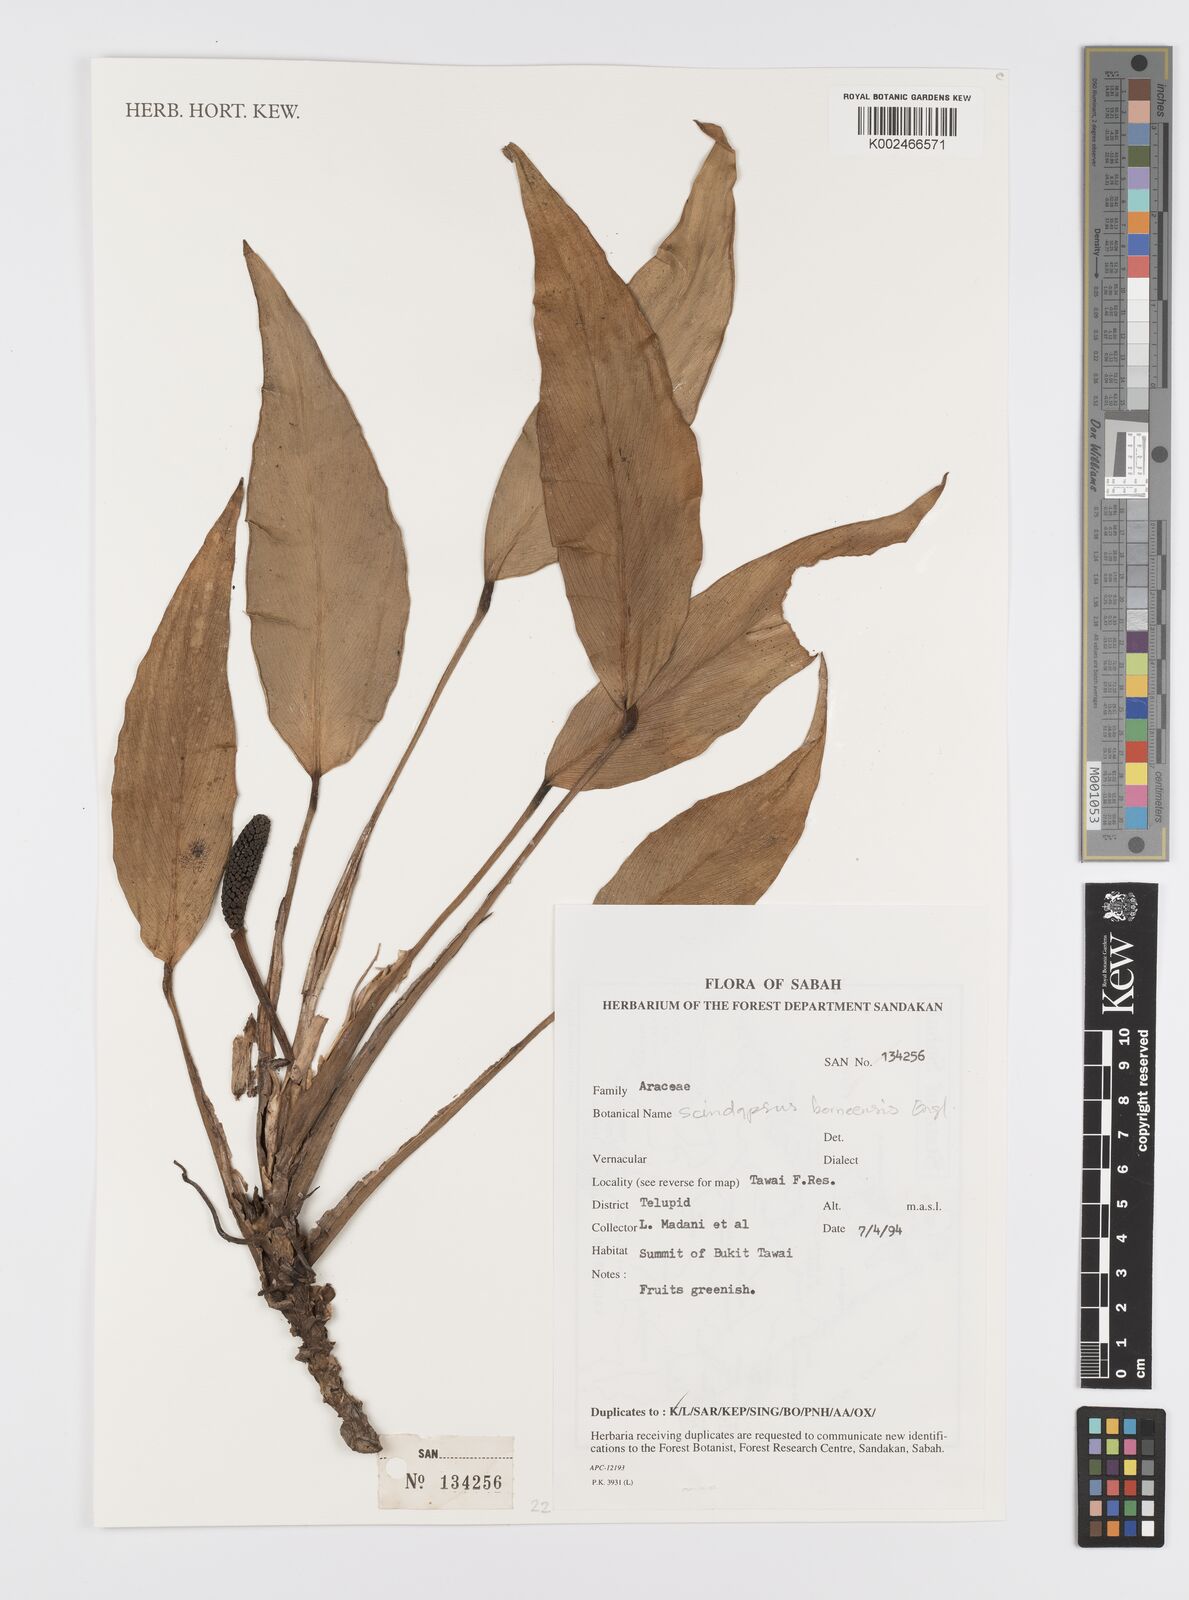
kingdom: Plantae
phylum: Tracheophyta
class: Liliopsida
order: Alismatales
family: Araceae
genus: Scindapsus
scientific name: Scindapsus coriaceus
